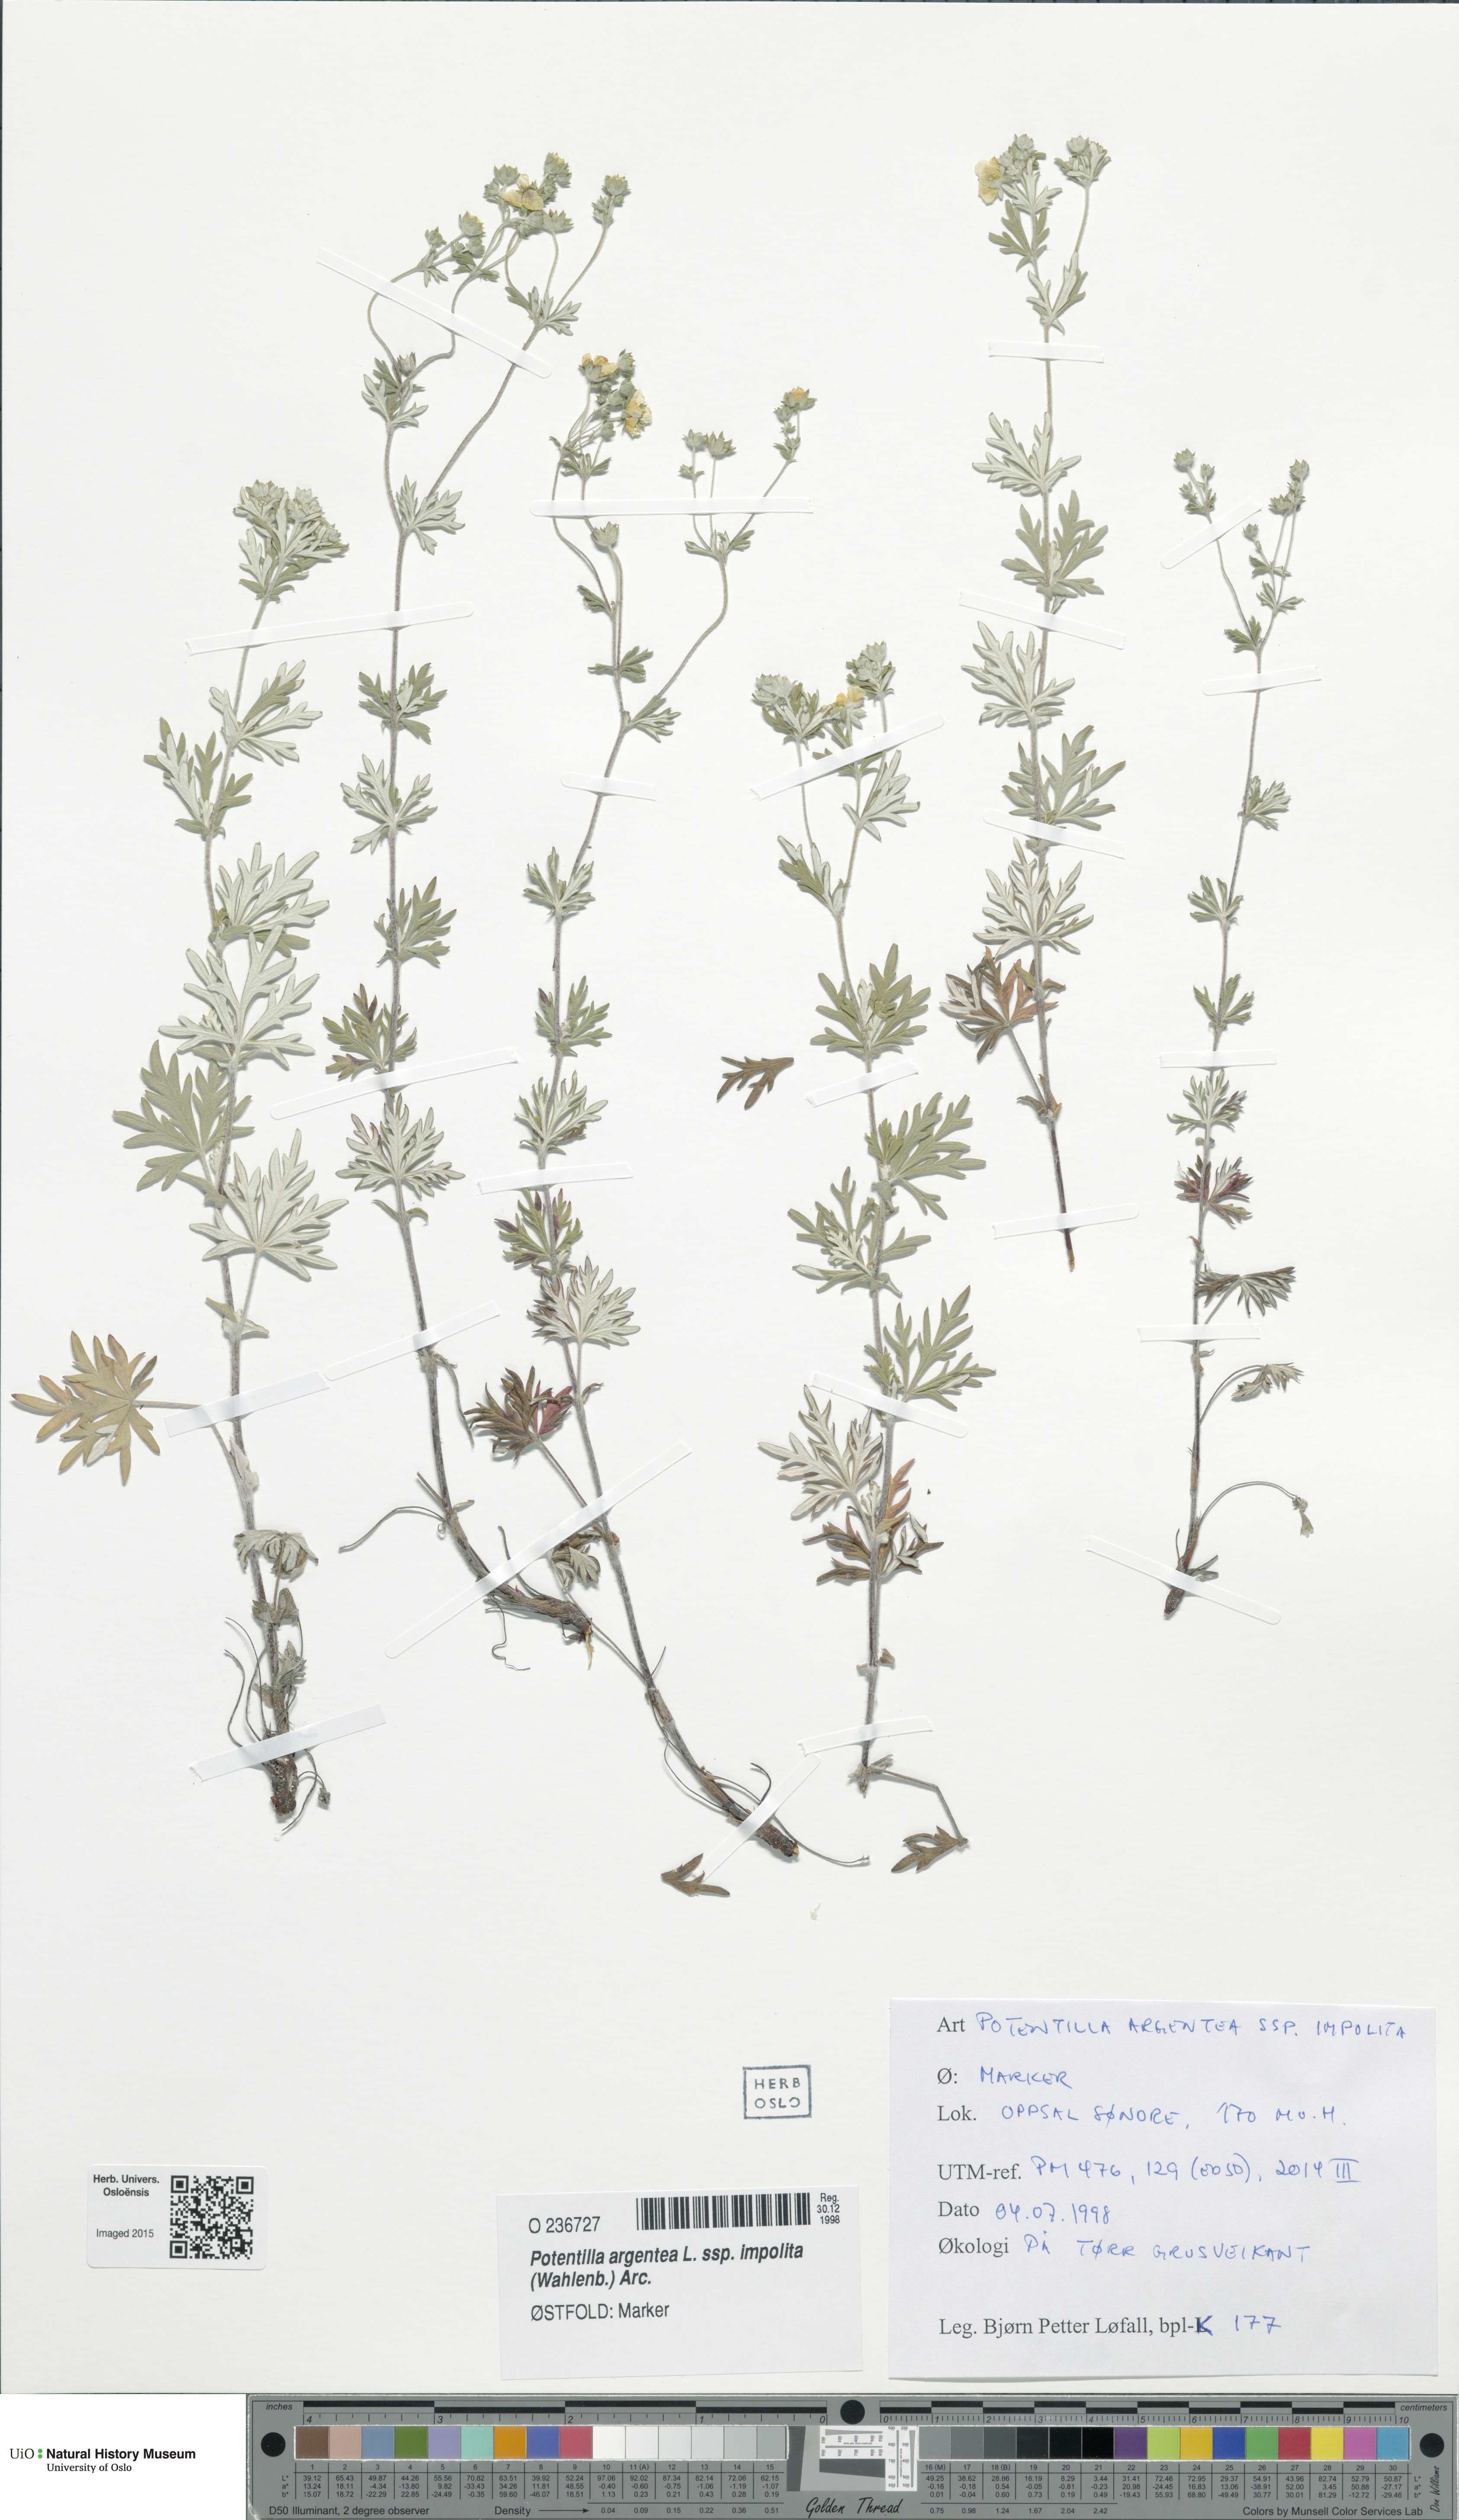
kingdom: Plantae
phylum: Tracheophyta
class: Magnoliopsida
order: Rosales
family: Rosaceae
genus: Potentilla
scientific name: Potentilla neglecta
